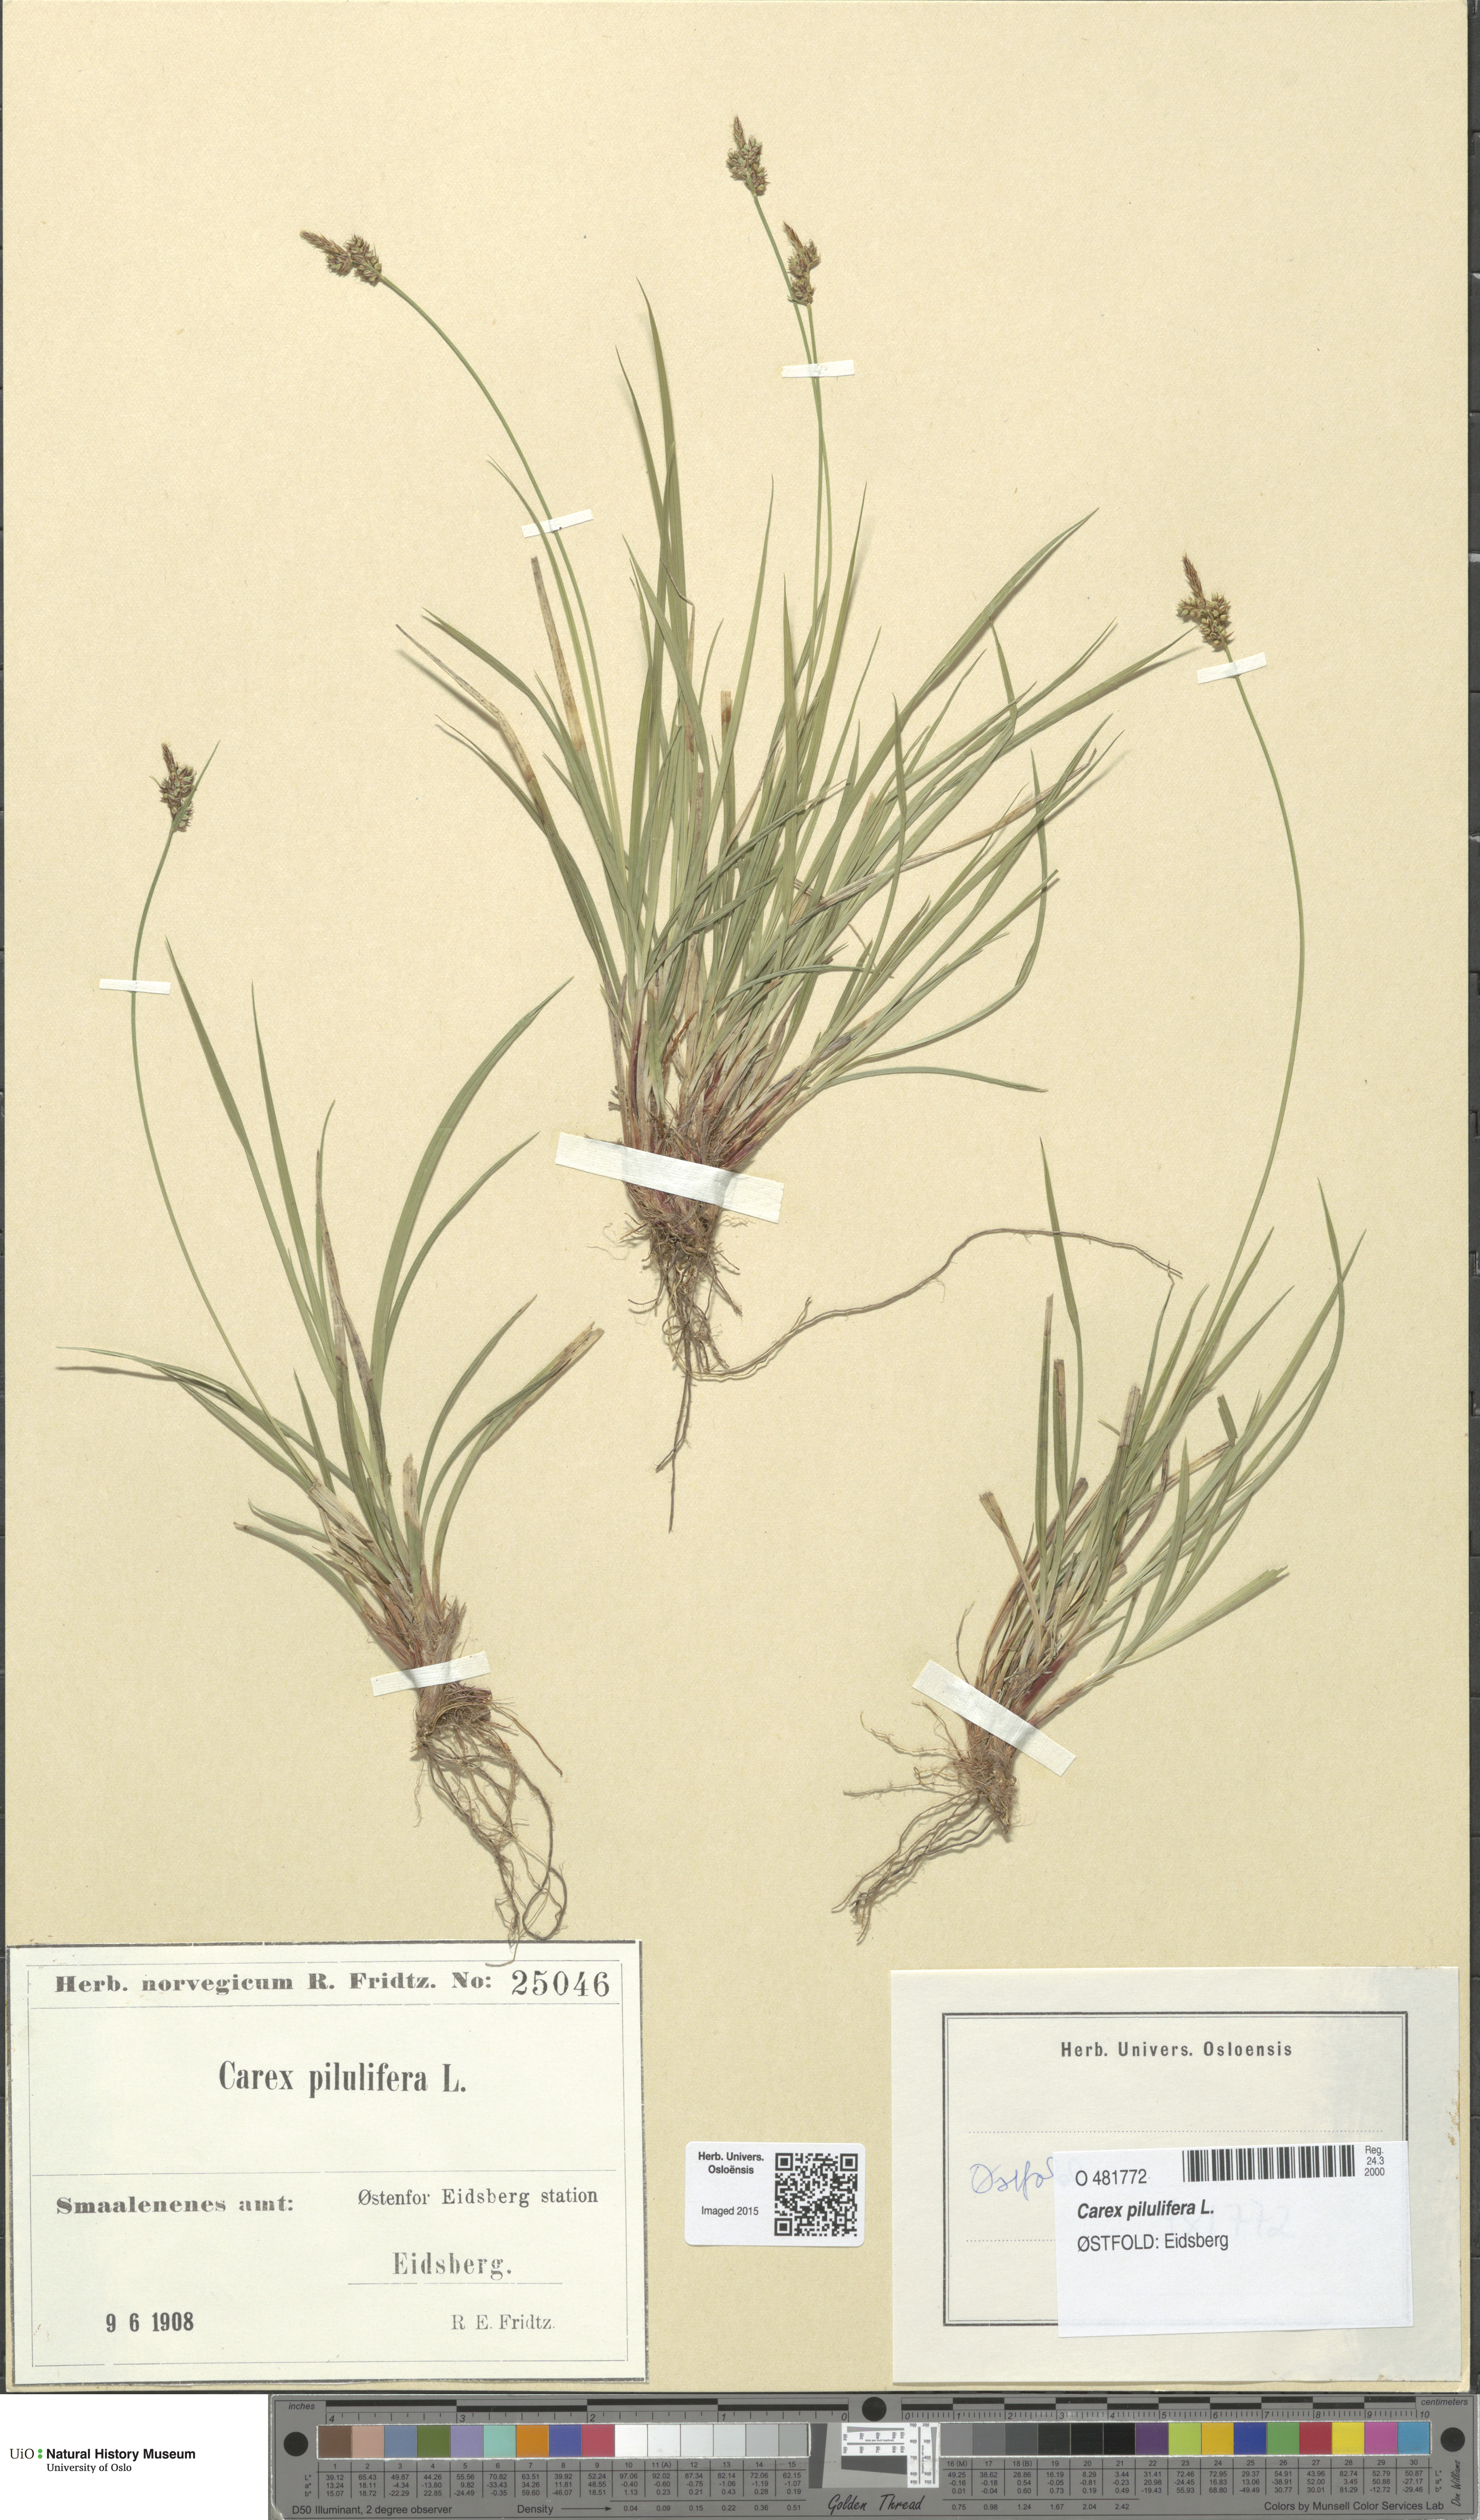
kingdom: Plantae
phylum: Tracheophyta
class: Liliopsida
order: Poales
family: Cyperaceae
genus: Carex
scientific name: Carex pilulifera
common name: Pill sedge
